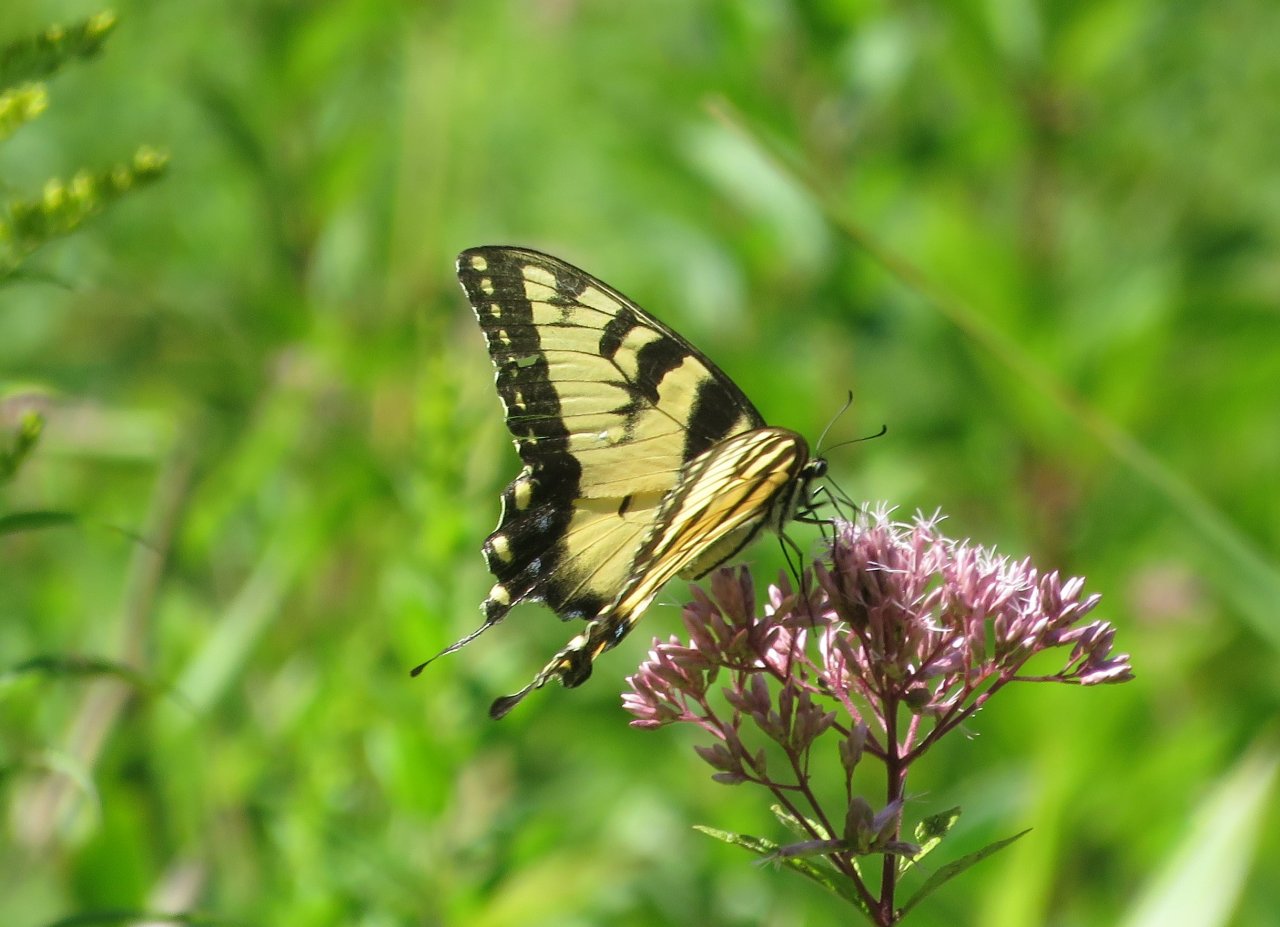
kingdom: Animalia
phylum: Arthropoda
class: Insecta
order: Lepidoptera
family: Papilionidae
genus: Pterourus
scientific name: Pterourus glaucus
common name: Eastern Tiger Swallowtail
